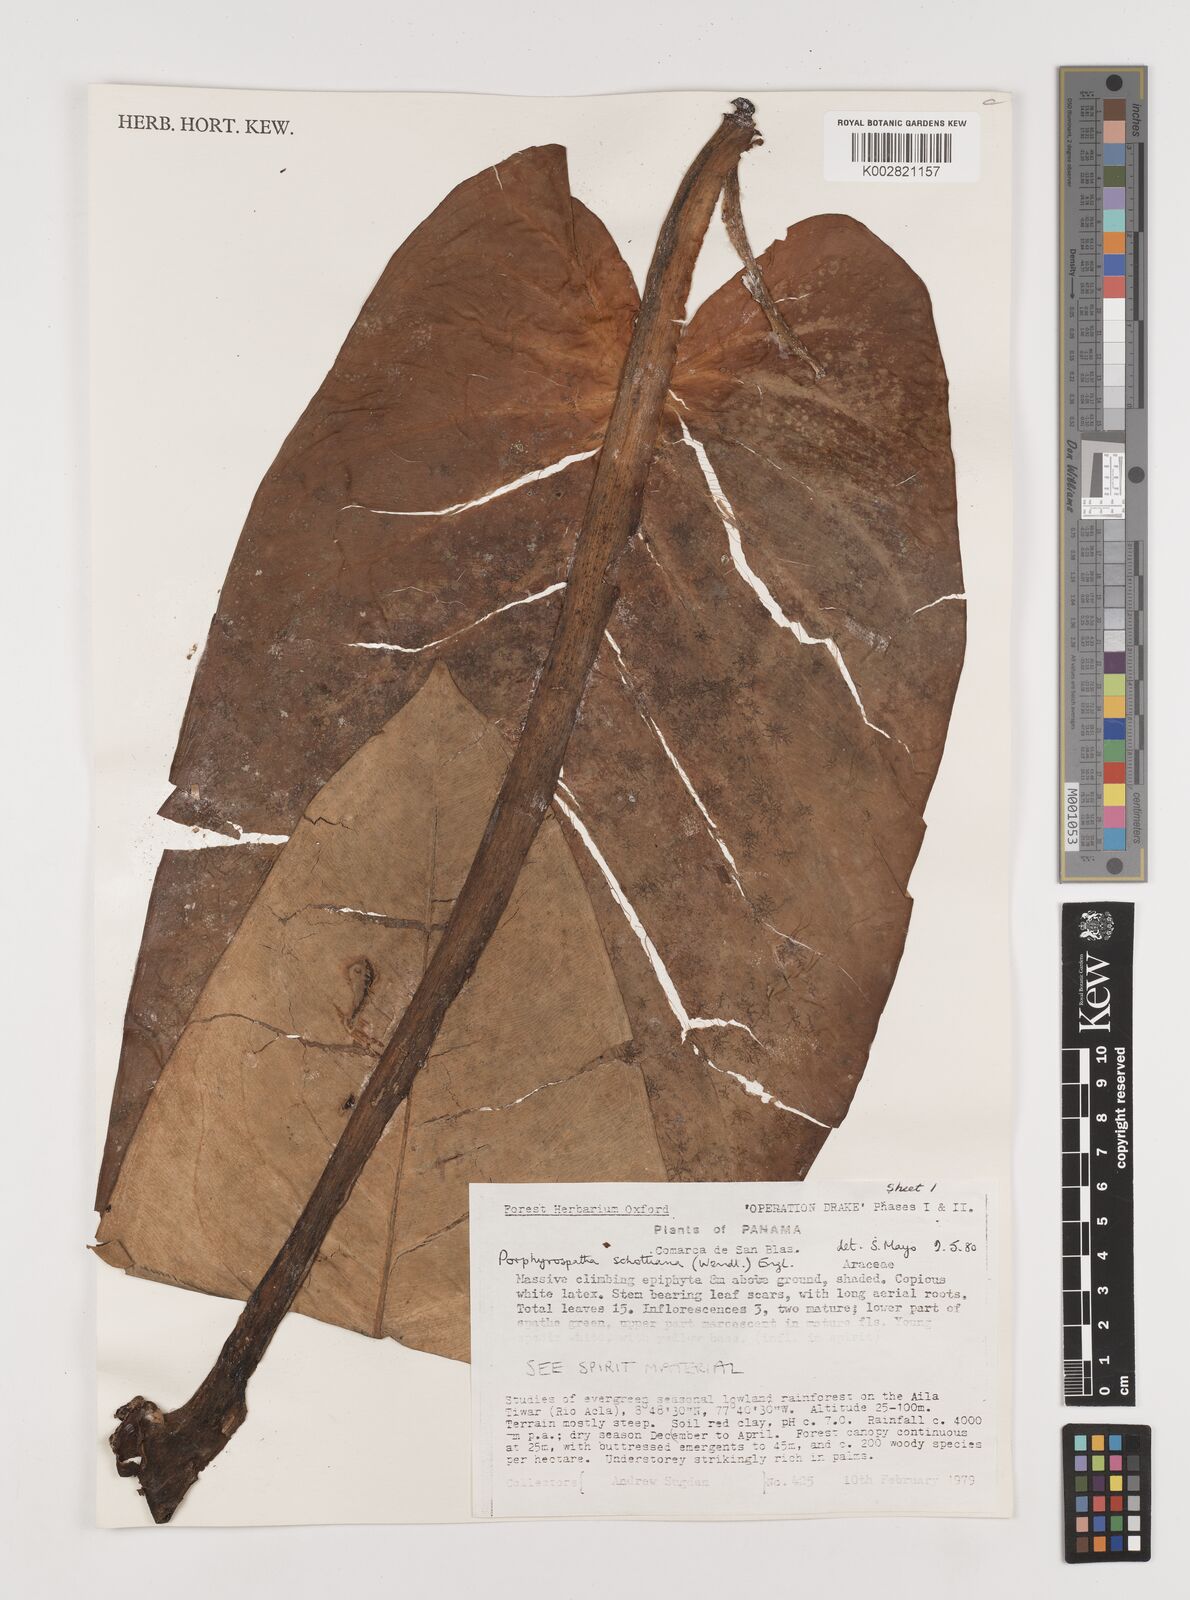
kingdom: Plantae
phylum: Tracheophyta
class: Liliopsida
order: Alismatales
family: Araceae
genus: Syngonium
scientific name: Syngonium schottianum
